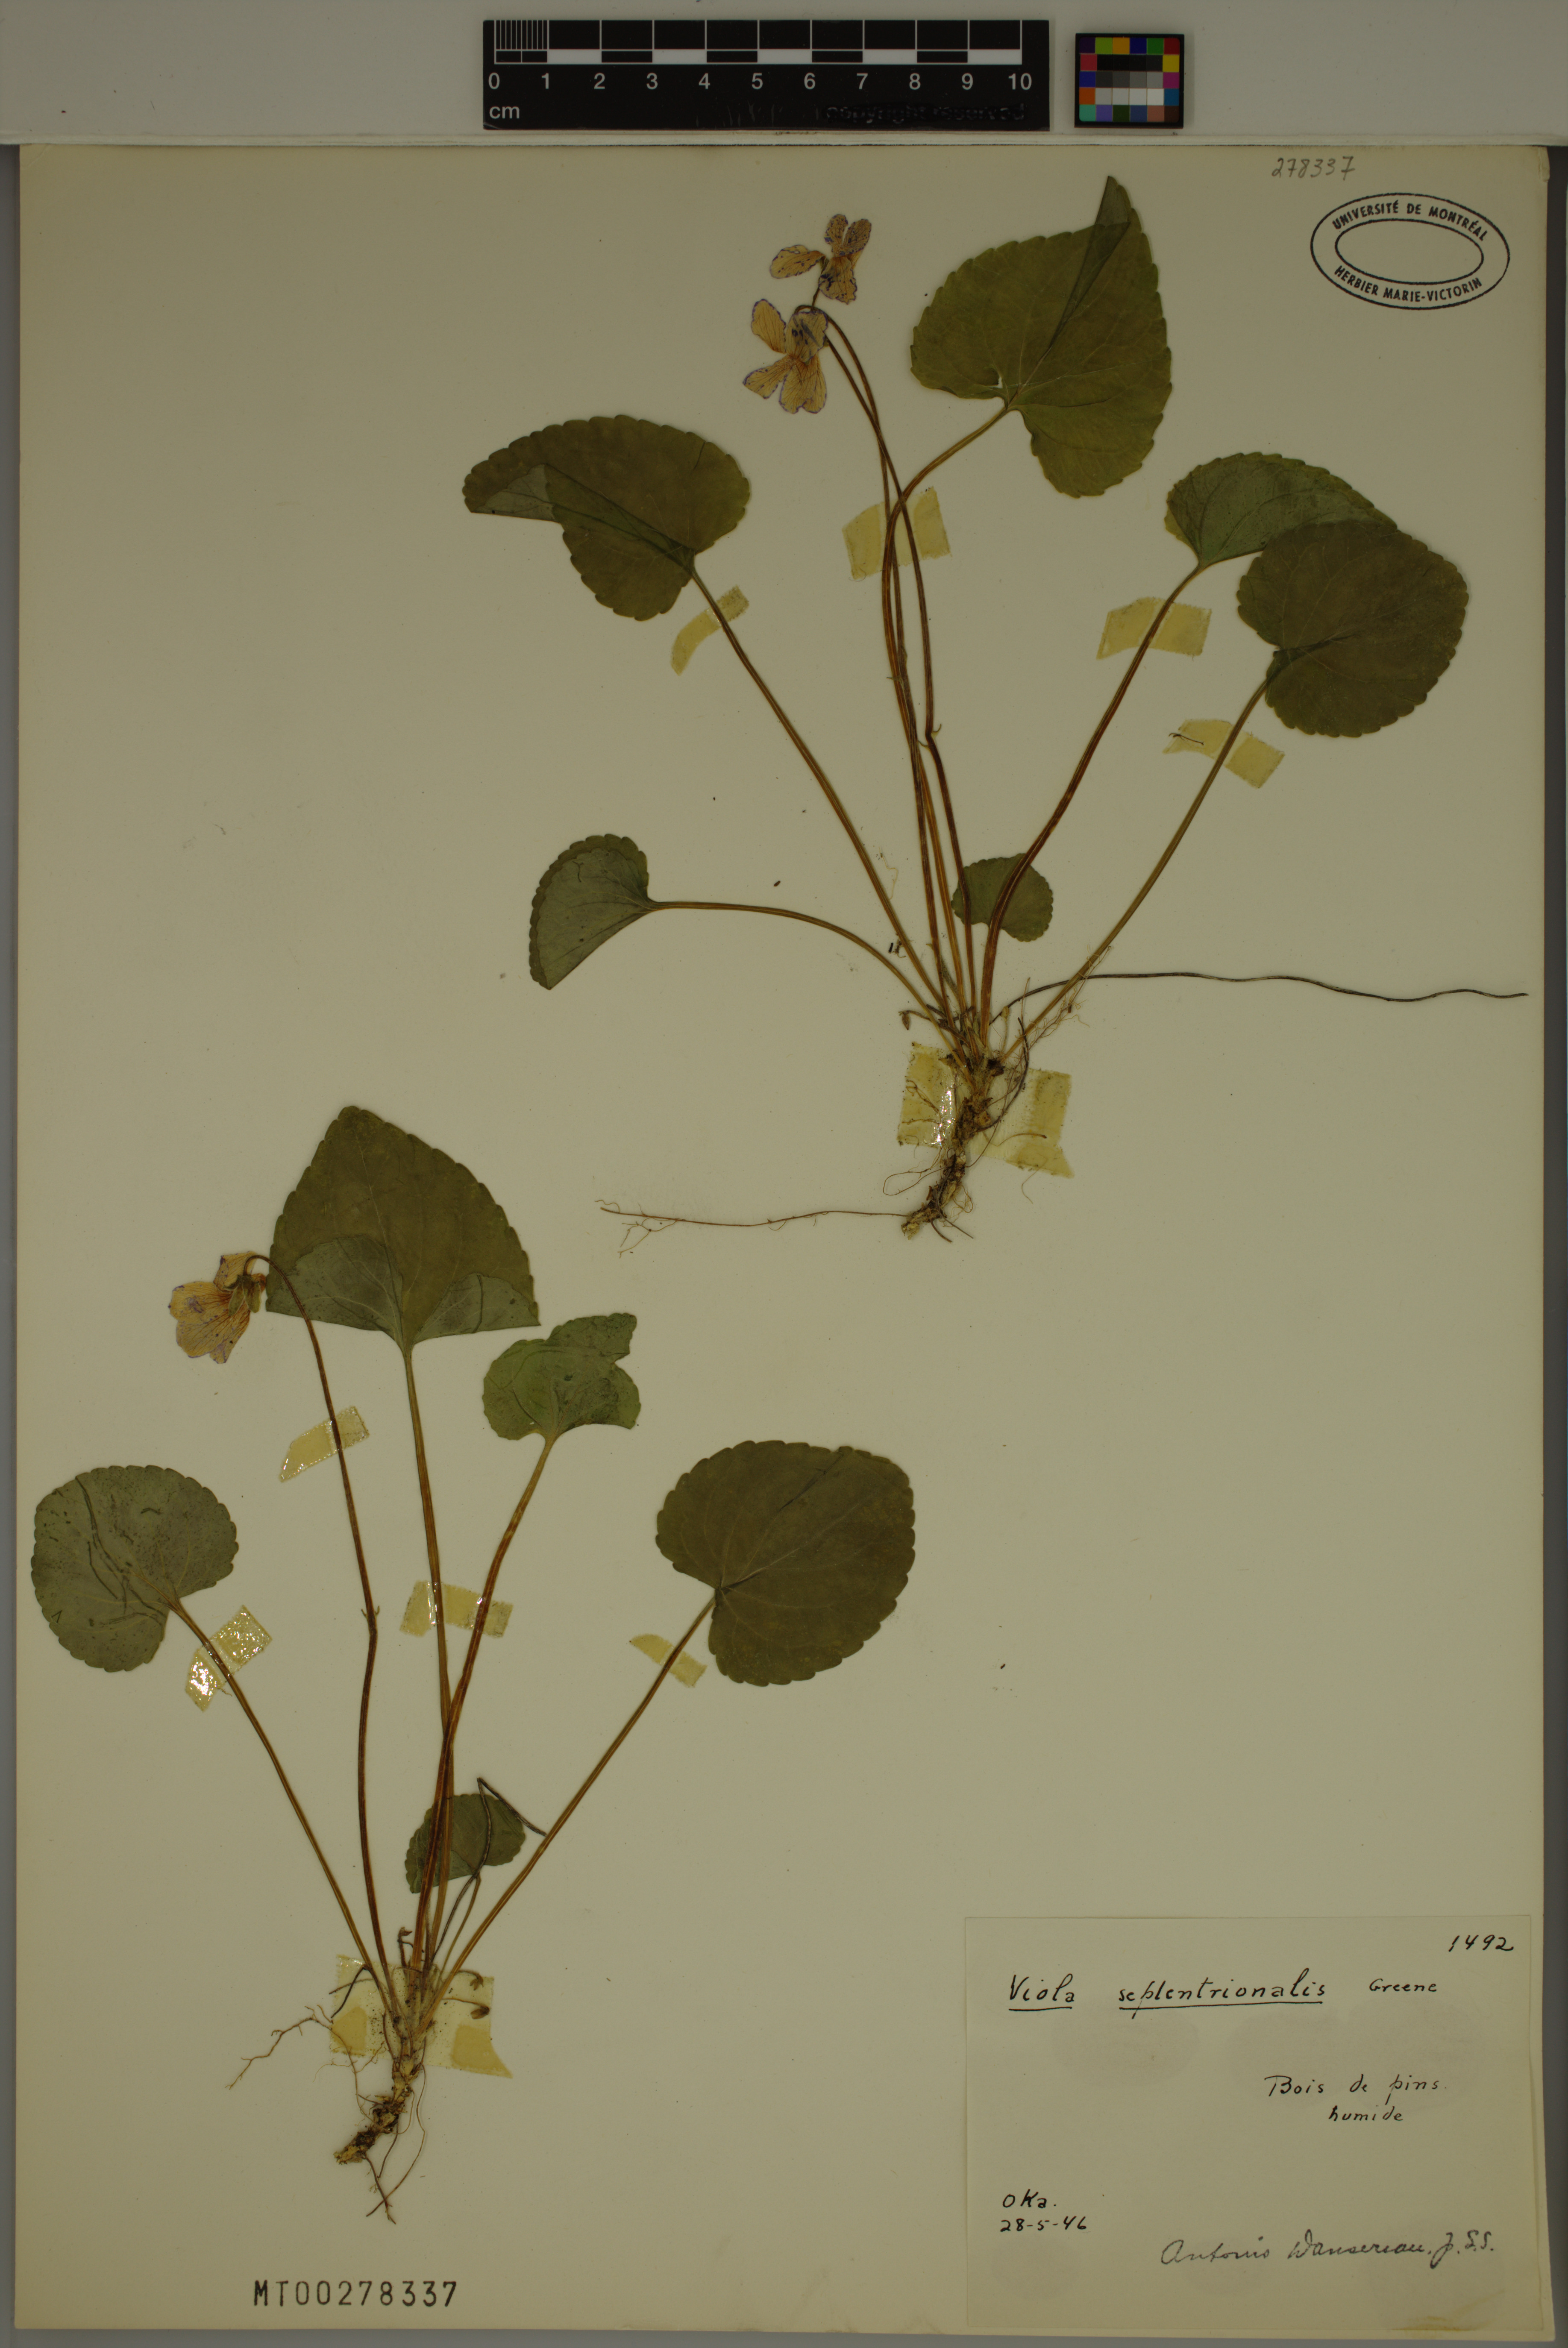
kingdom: Plantae
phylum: Tracheophyta
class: Magnoliopsida
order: Malpighiales
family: Violaceae
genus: Viola
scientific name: Viola septentrionalis
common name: Northern woodland violet
